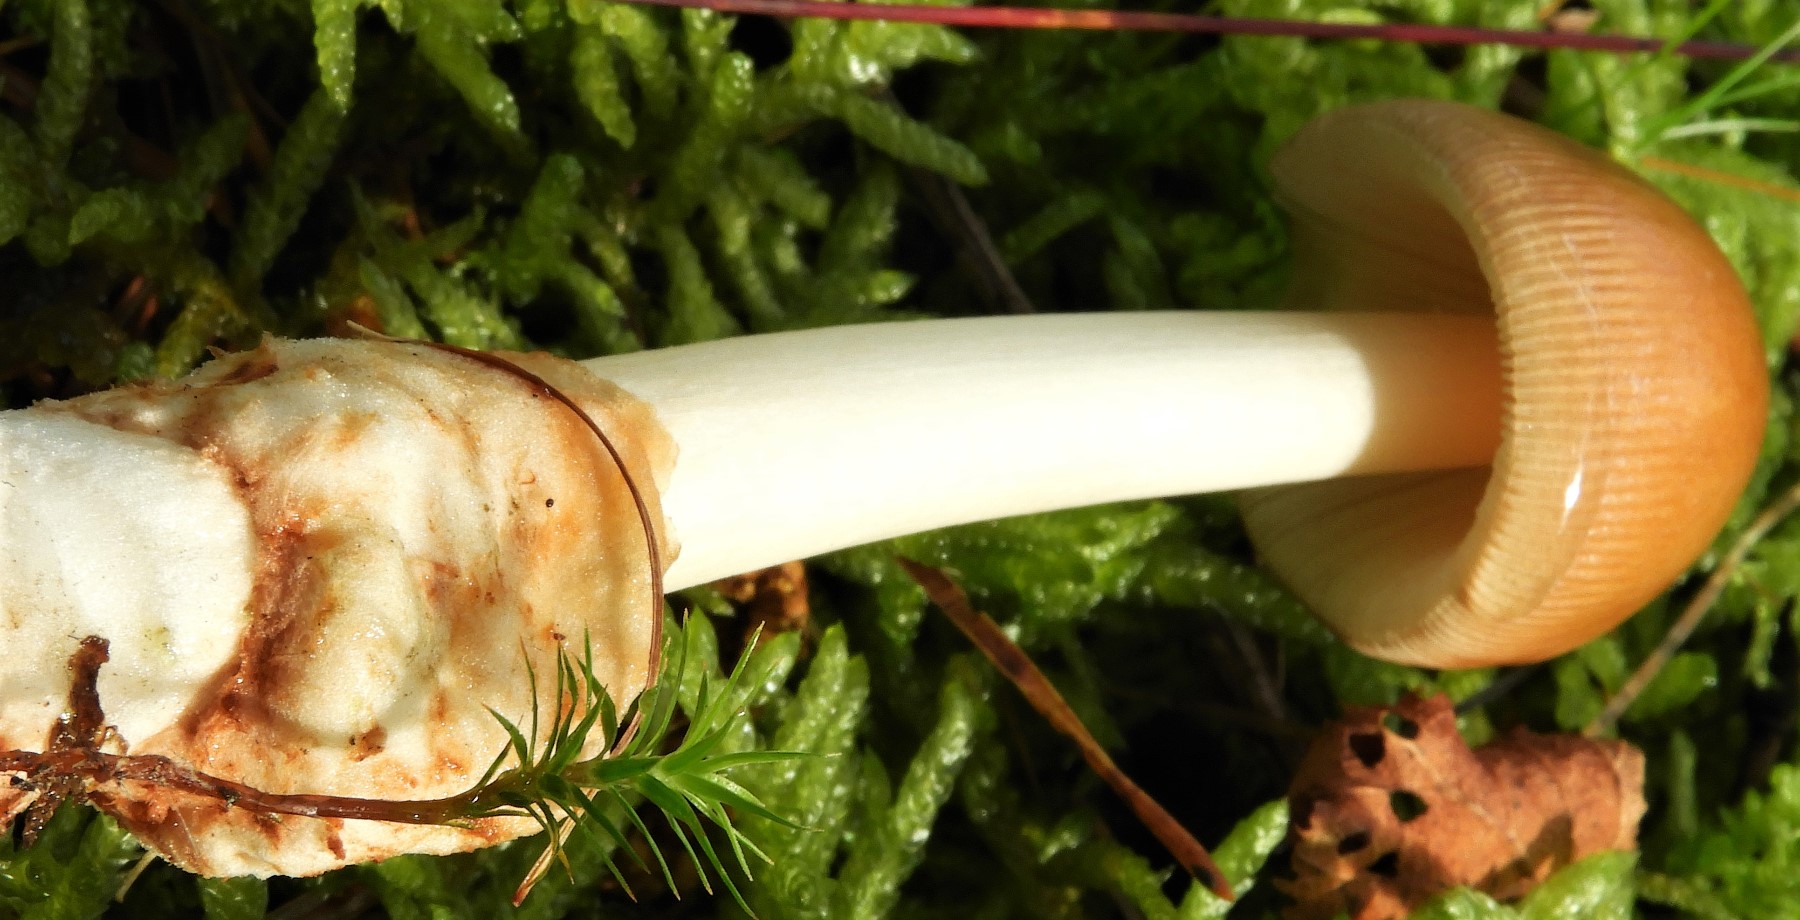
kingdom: Fungi
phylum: Basidiomycota
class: Agaricomycetes
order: Agaricales
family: Amanitaceae
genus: Amanita
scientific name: Amanita fulva
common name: brun kam-fluesvamp
